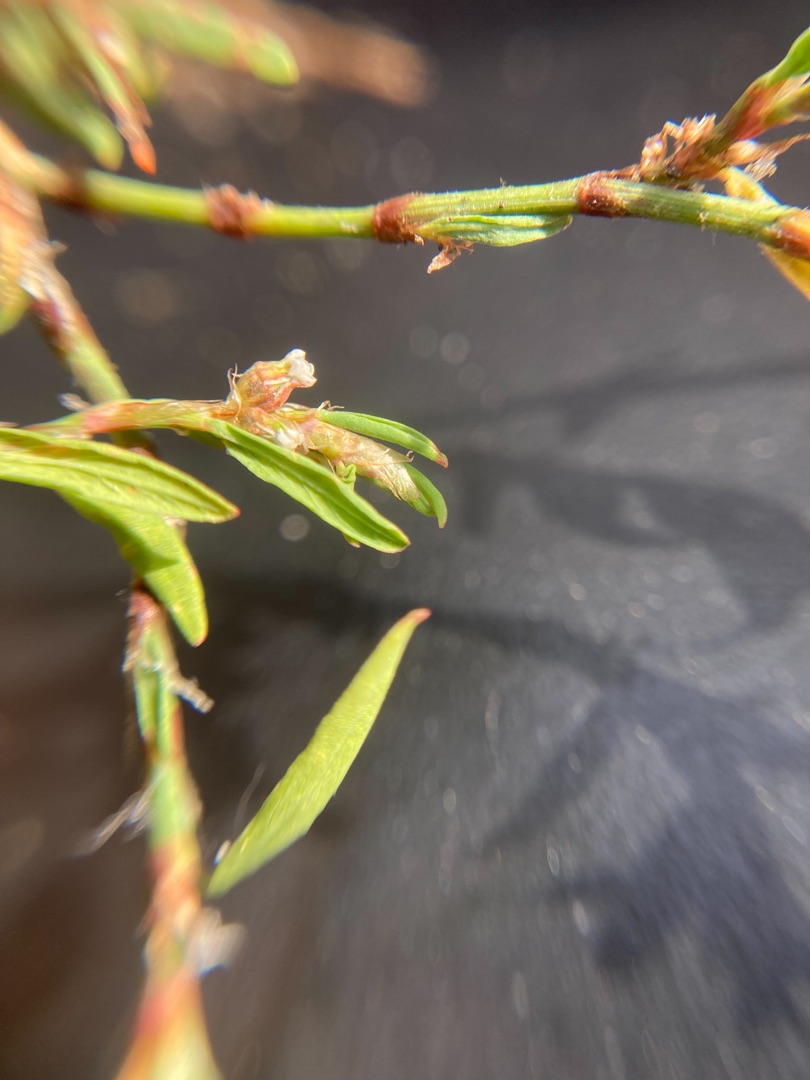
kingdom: Plantae
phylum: Tracheophyta
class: Magnoliopsida
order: Caryophyllales
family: Polygonaceae
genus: Polygonum
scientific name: Polygonum arenastrum
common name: Liggende vej-pileurt
